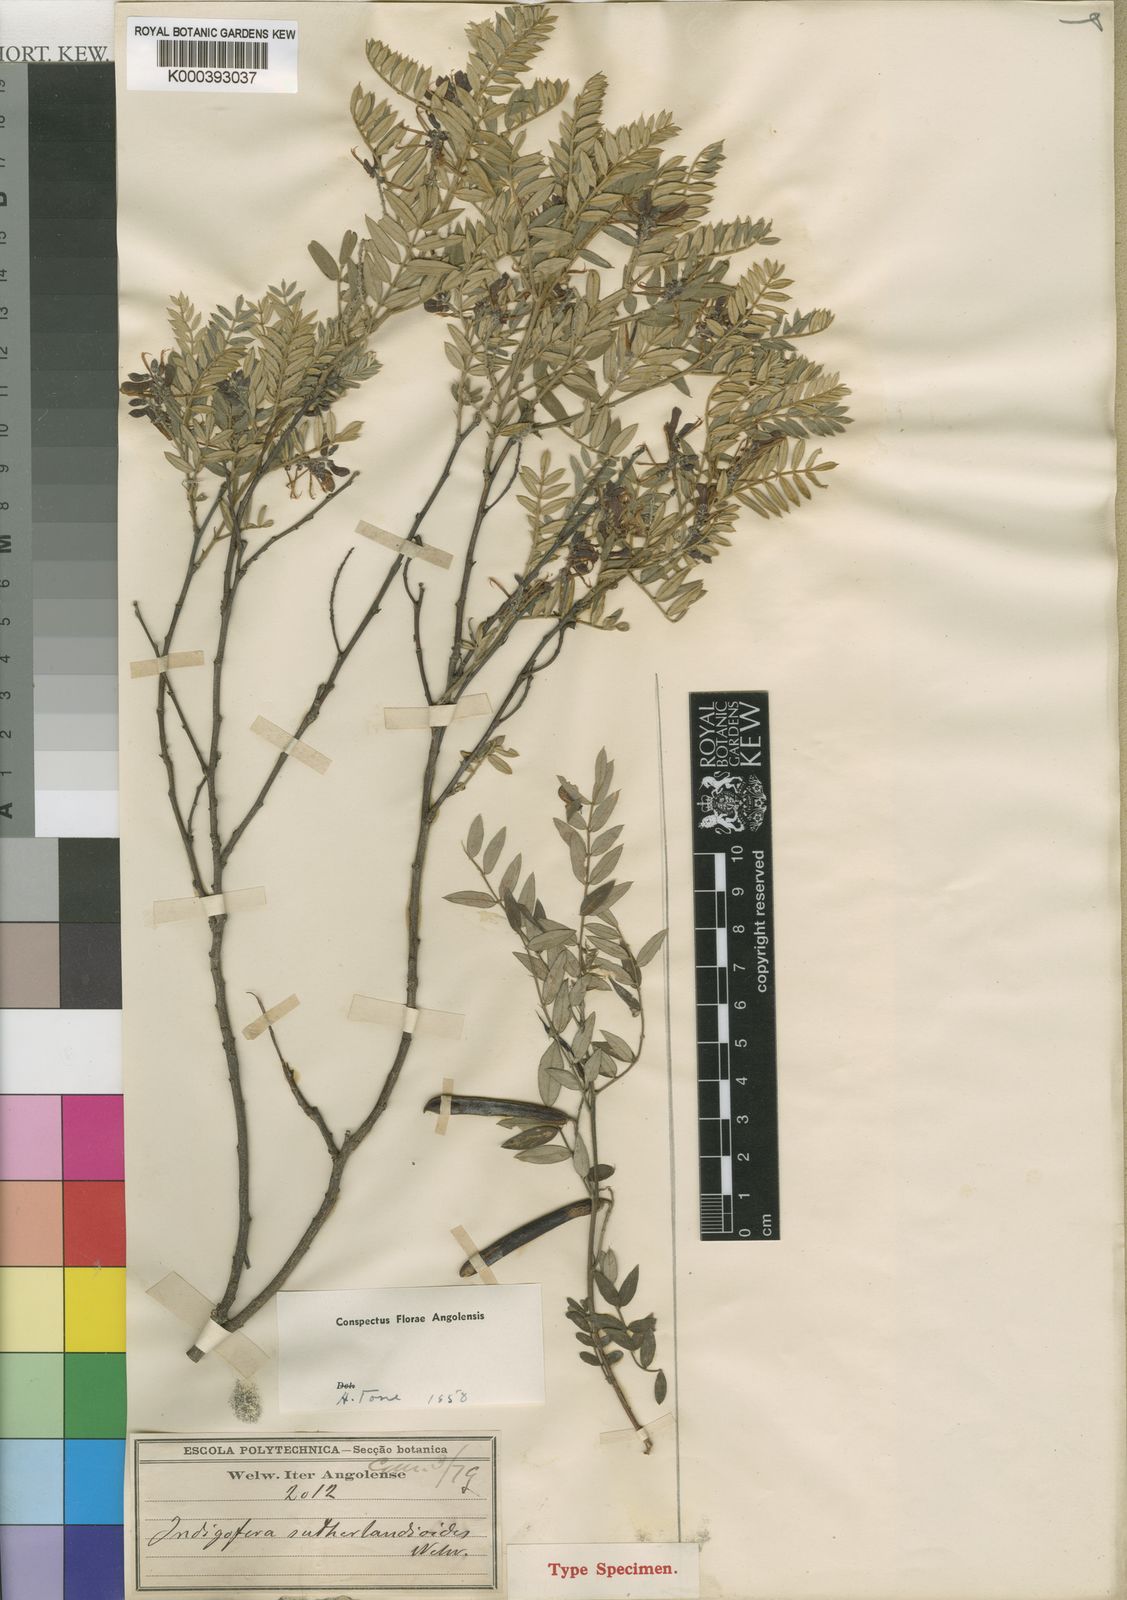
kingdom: Plantae
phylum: Tracheophyta
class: Magnoliopsida
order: Fabales
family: Fabaceae
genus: Indigofera
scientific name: Indigofera sutherlandioides
